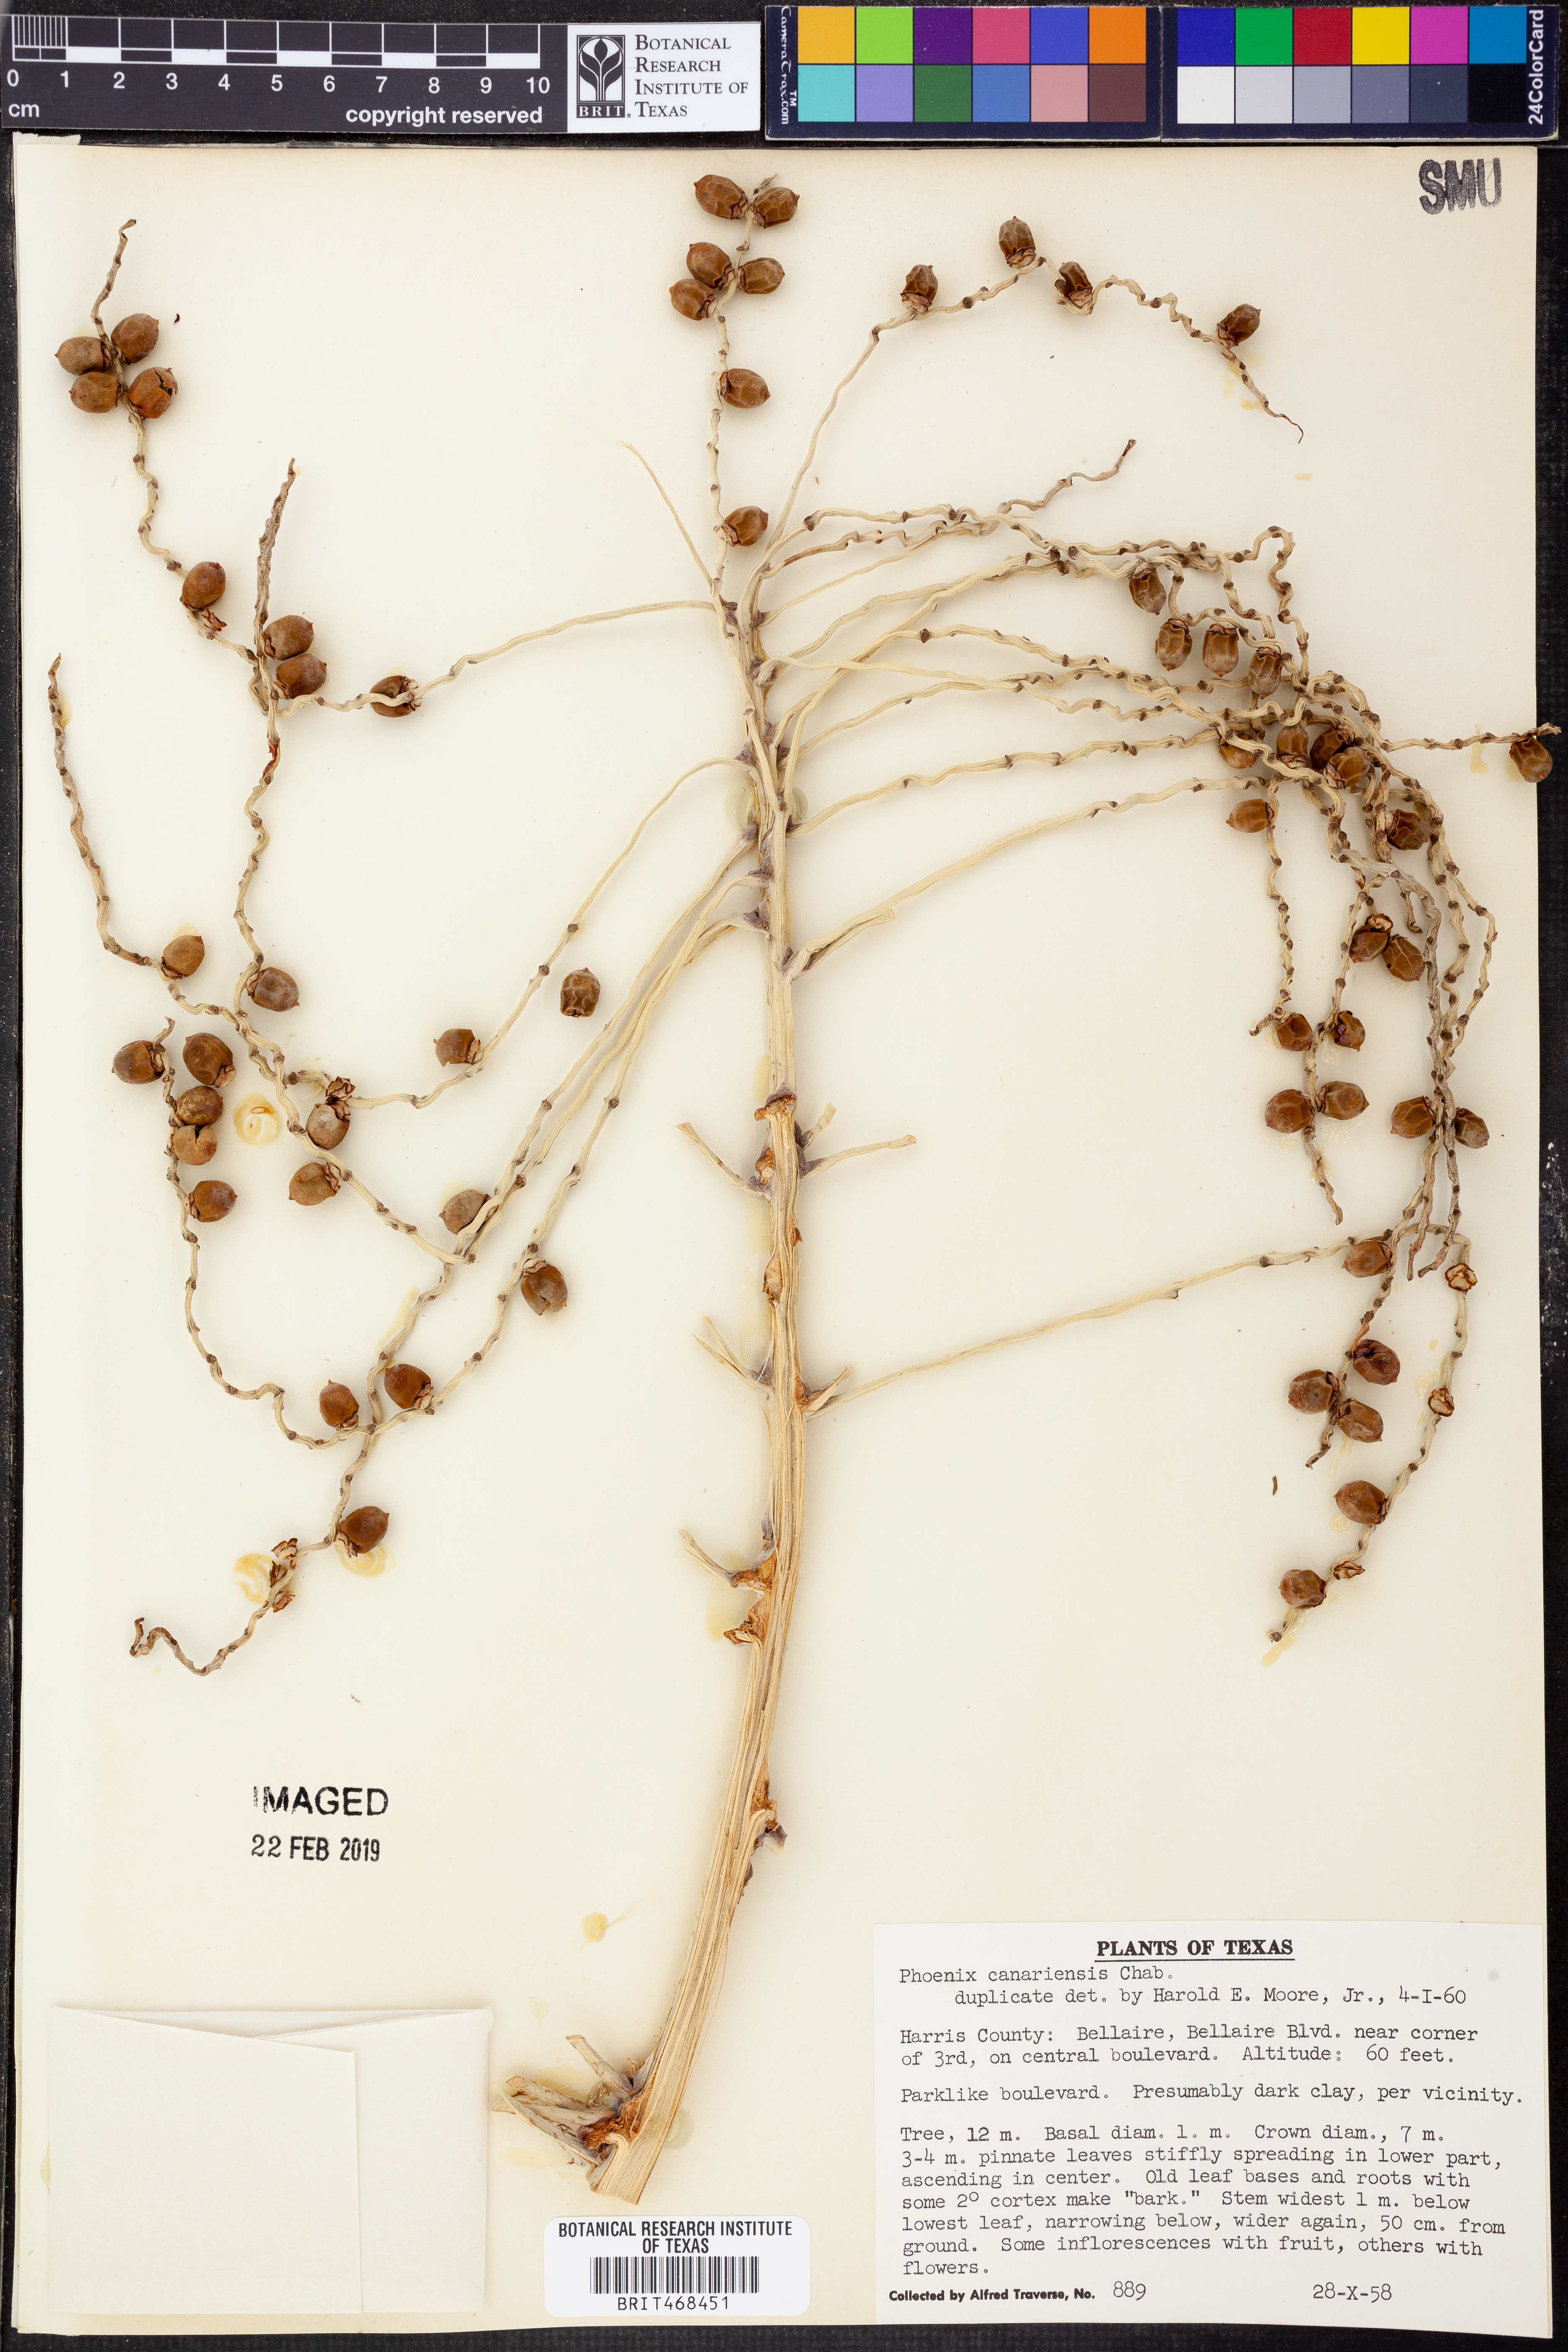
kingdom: Plantae
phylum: Tracheophyta
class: Liliopsida
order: Arecales
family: Arecaceae
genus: Phoenix
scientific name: Phoenix canariensis
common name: Canary island date palm
